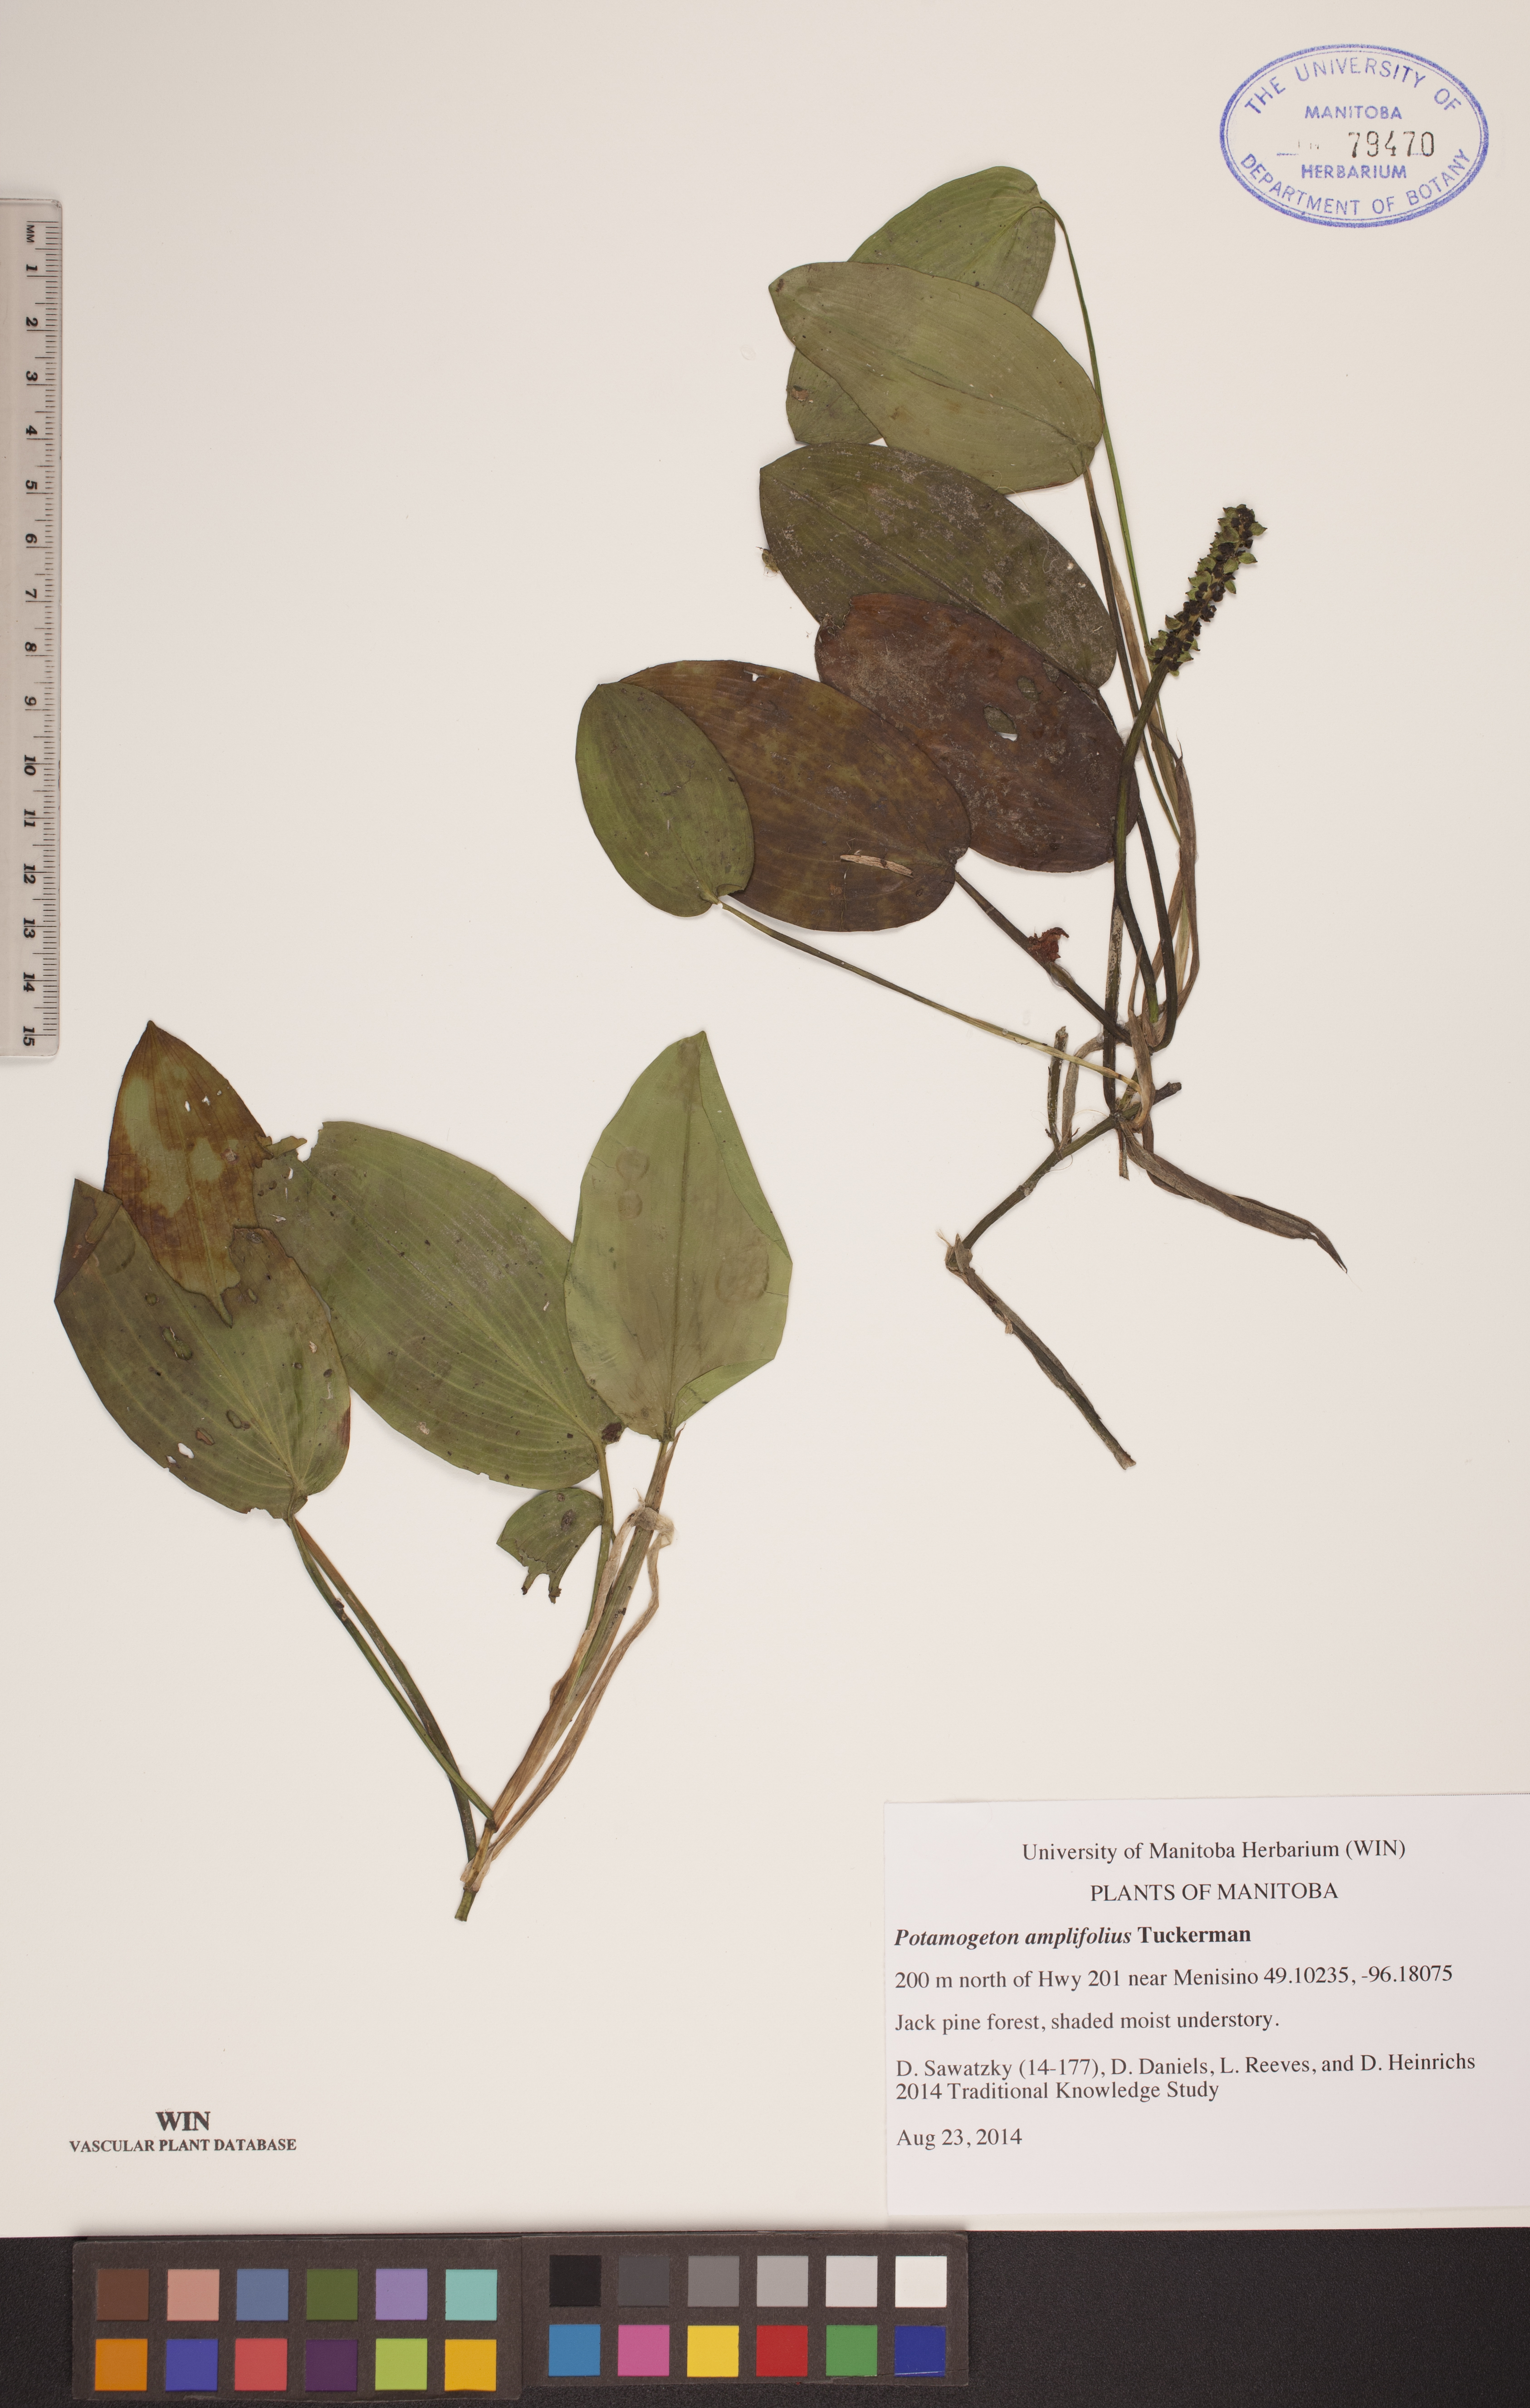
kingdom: Plantae
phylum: Tracheophyta
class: Liliopsida
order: Alismatales
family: Potamogetonaceae
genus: Potamogeton
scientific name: Potamogeton amplifolius
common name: Broad-leaved pondweed
